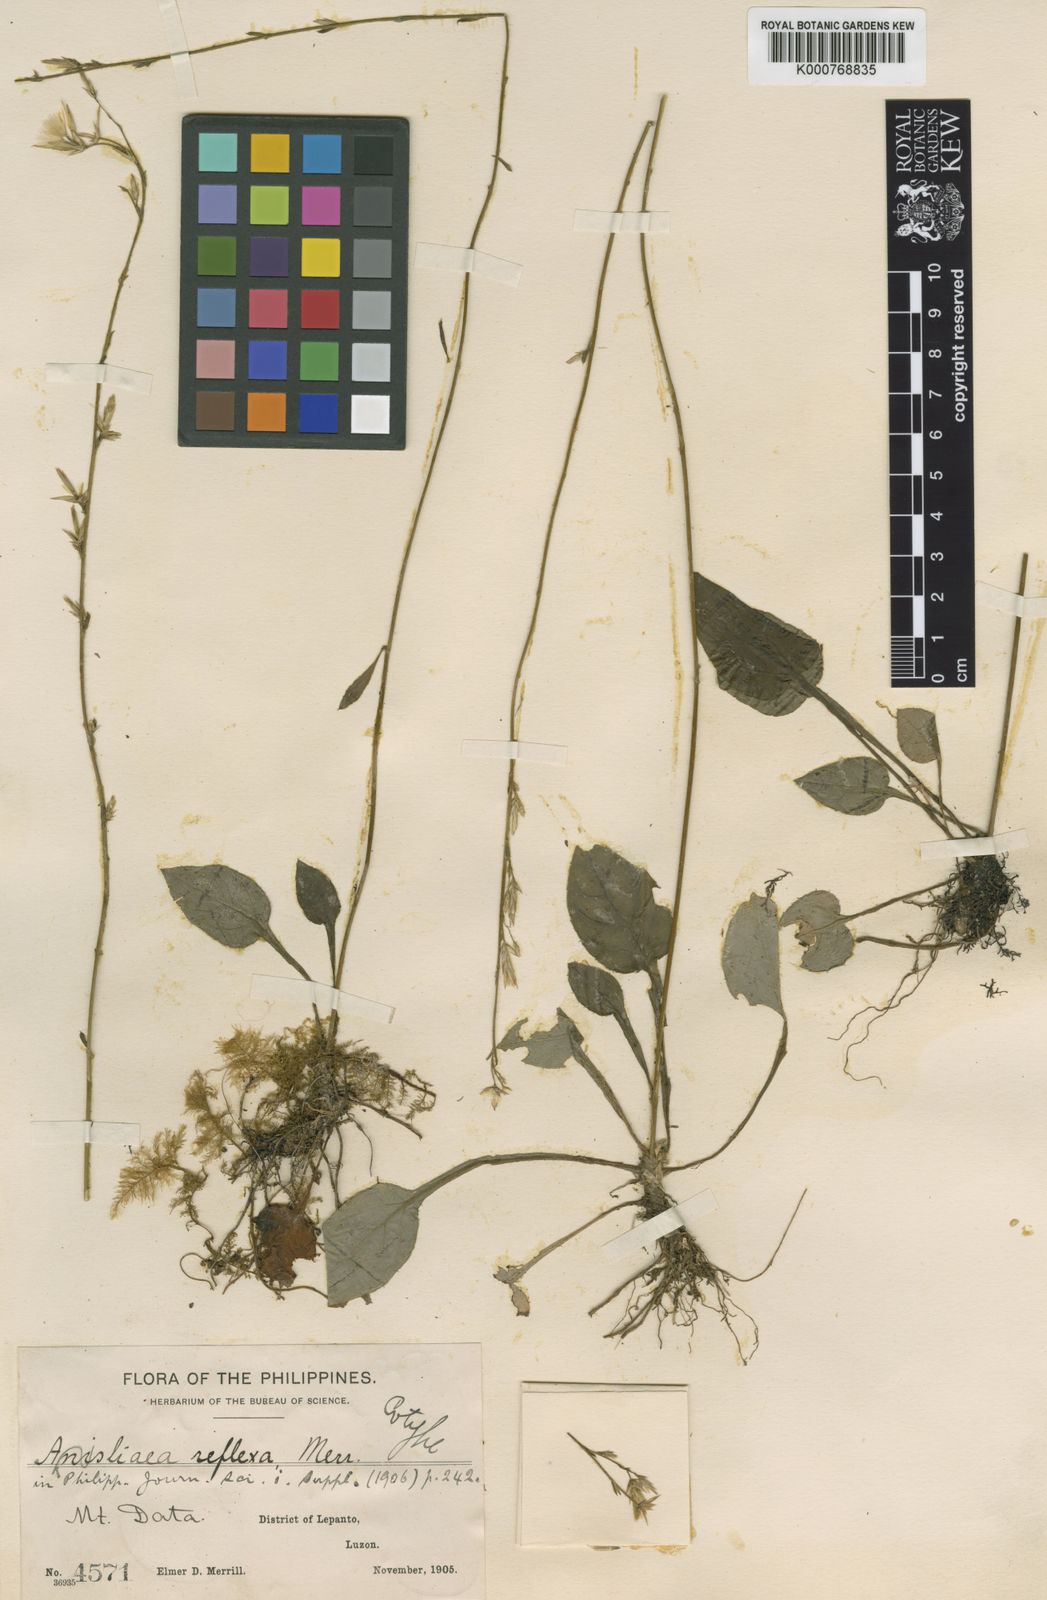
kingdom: Plantae
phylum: Tracheophyta
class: Magnoliopsida
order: Asterales
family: Asteraceae
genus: Ainsliaea
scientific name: Ainsliaea reflexa
